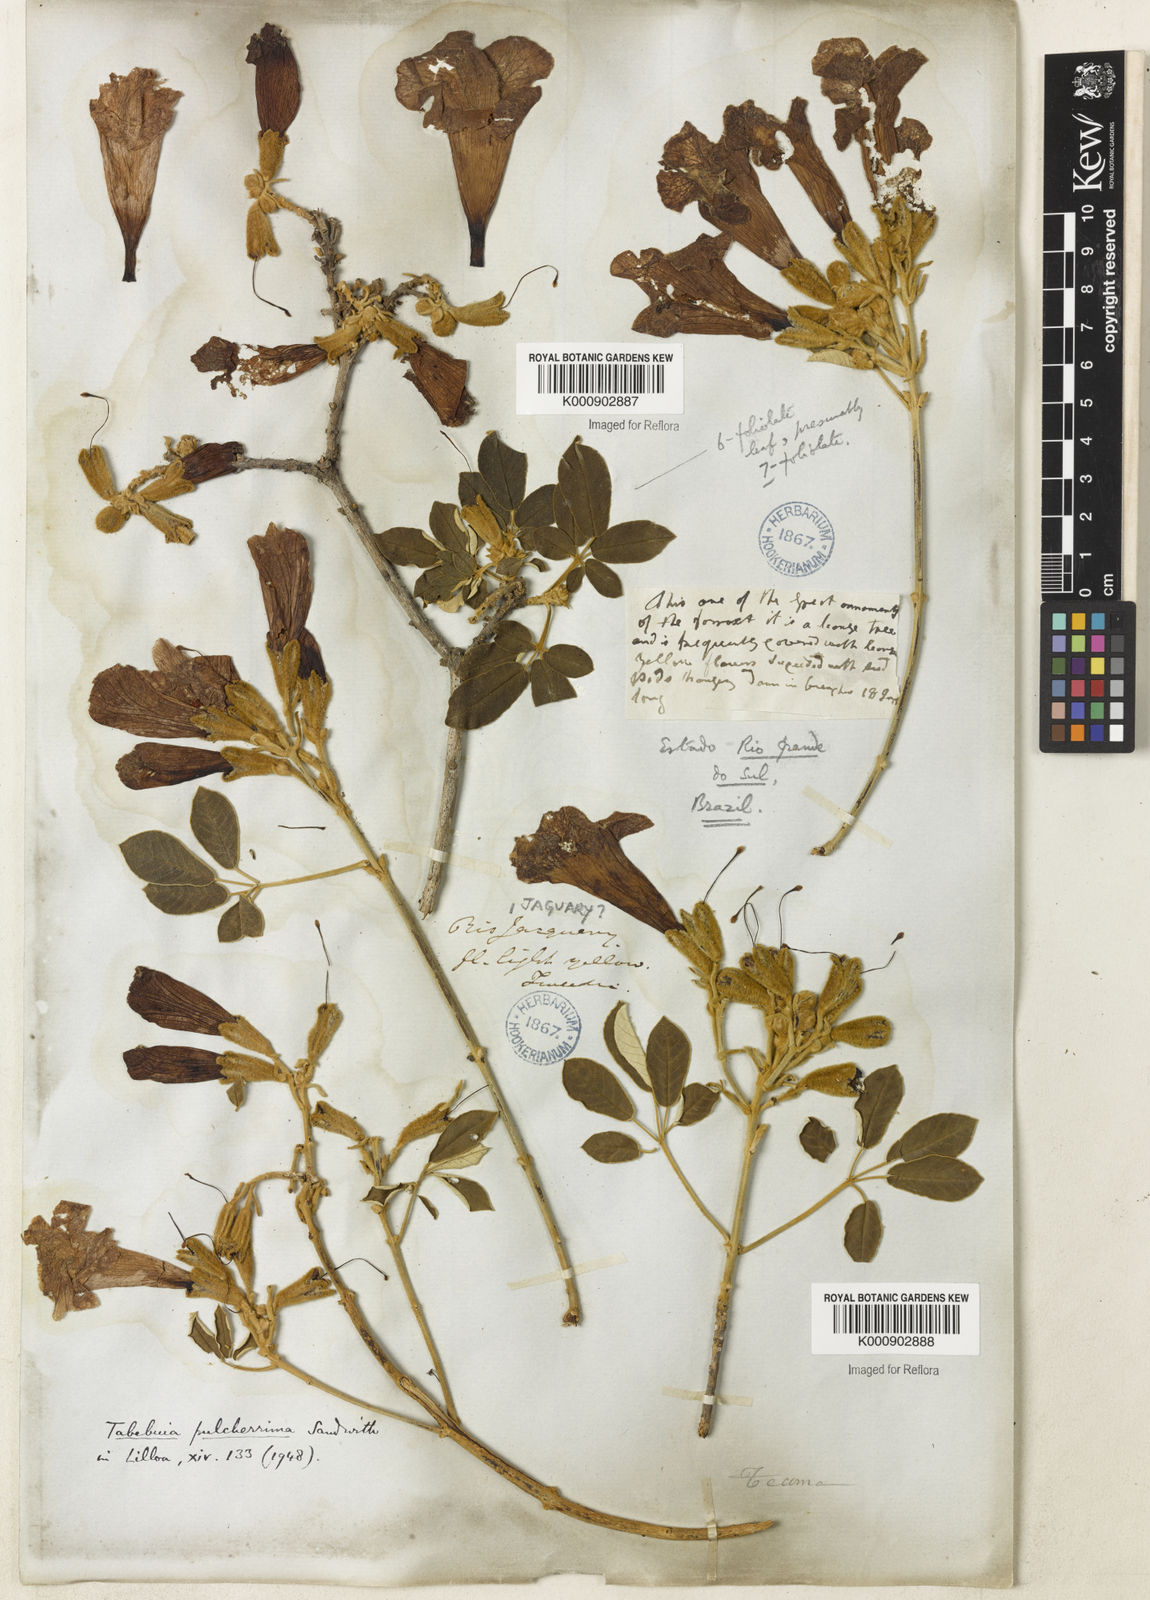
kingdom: Plantae
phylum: Tracheophyta
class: Magnoliopsida
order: Lamiales
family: Bignoniaceae
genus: Handroanthus
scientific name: Handroanthus pulcherrimus
